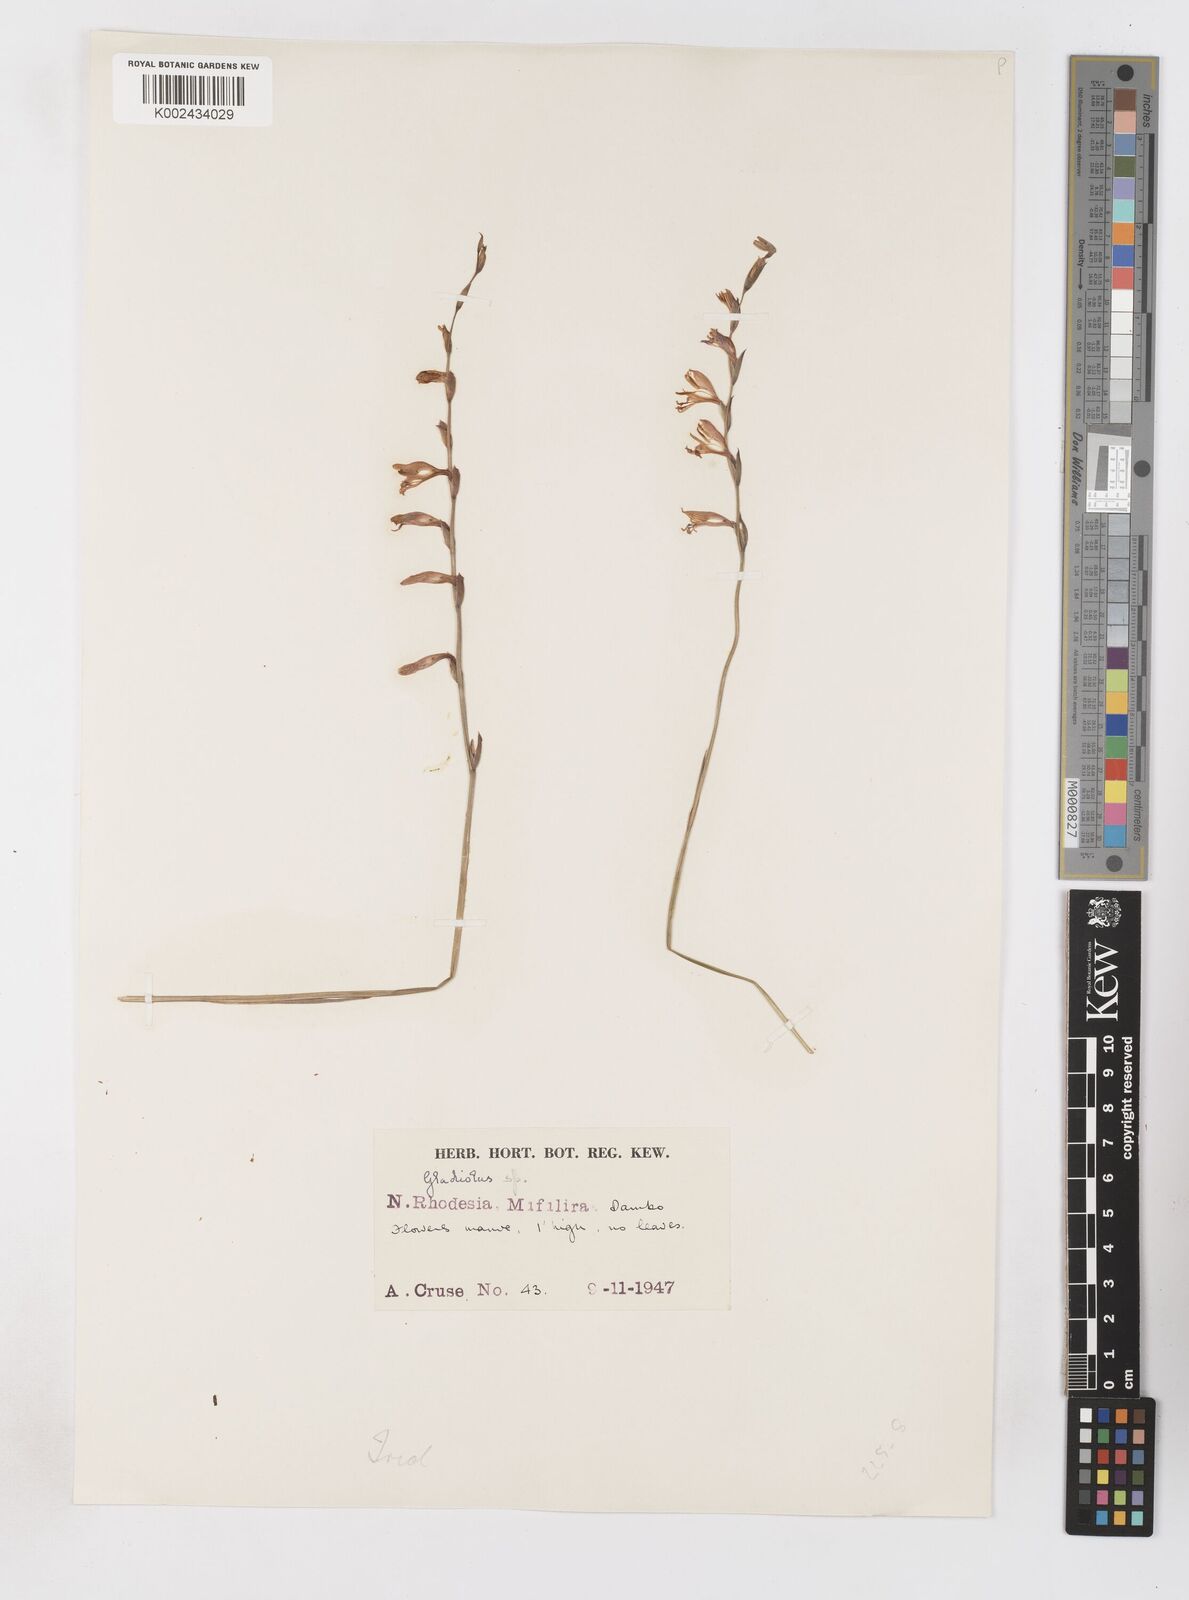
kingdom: Plantae
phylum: Tracheophyta
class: Liliopsida
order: Asparagales
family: Iridaceae
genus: Gladiolus
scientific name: Gladiolus atropurpureus
